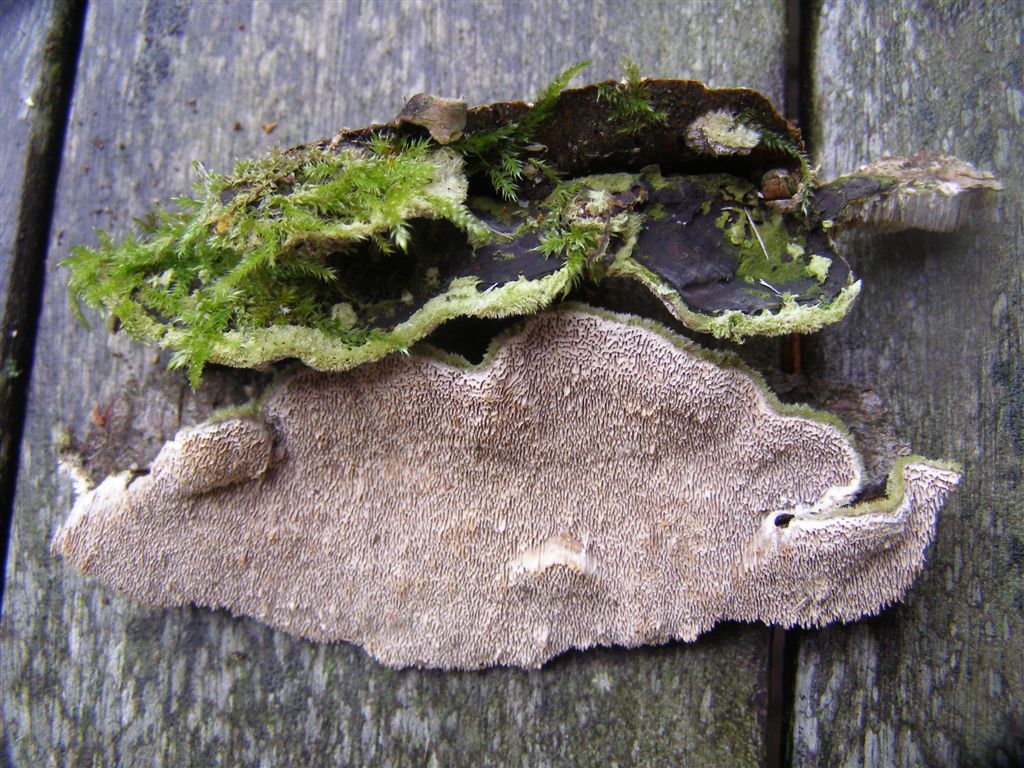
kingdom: Fungi
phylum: Basidiomycota
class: Agaricomycetes
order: Polyporales
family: Cerrenaceae
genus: Cerrena
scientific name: Cerrena unicolor
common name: ensfarvet læderporesvamp
